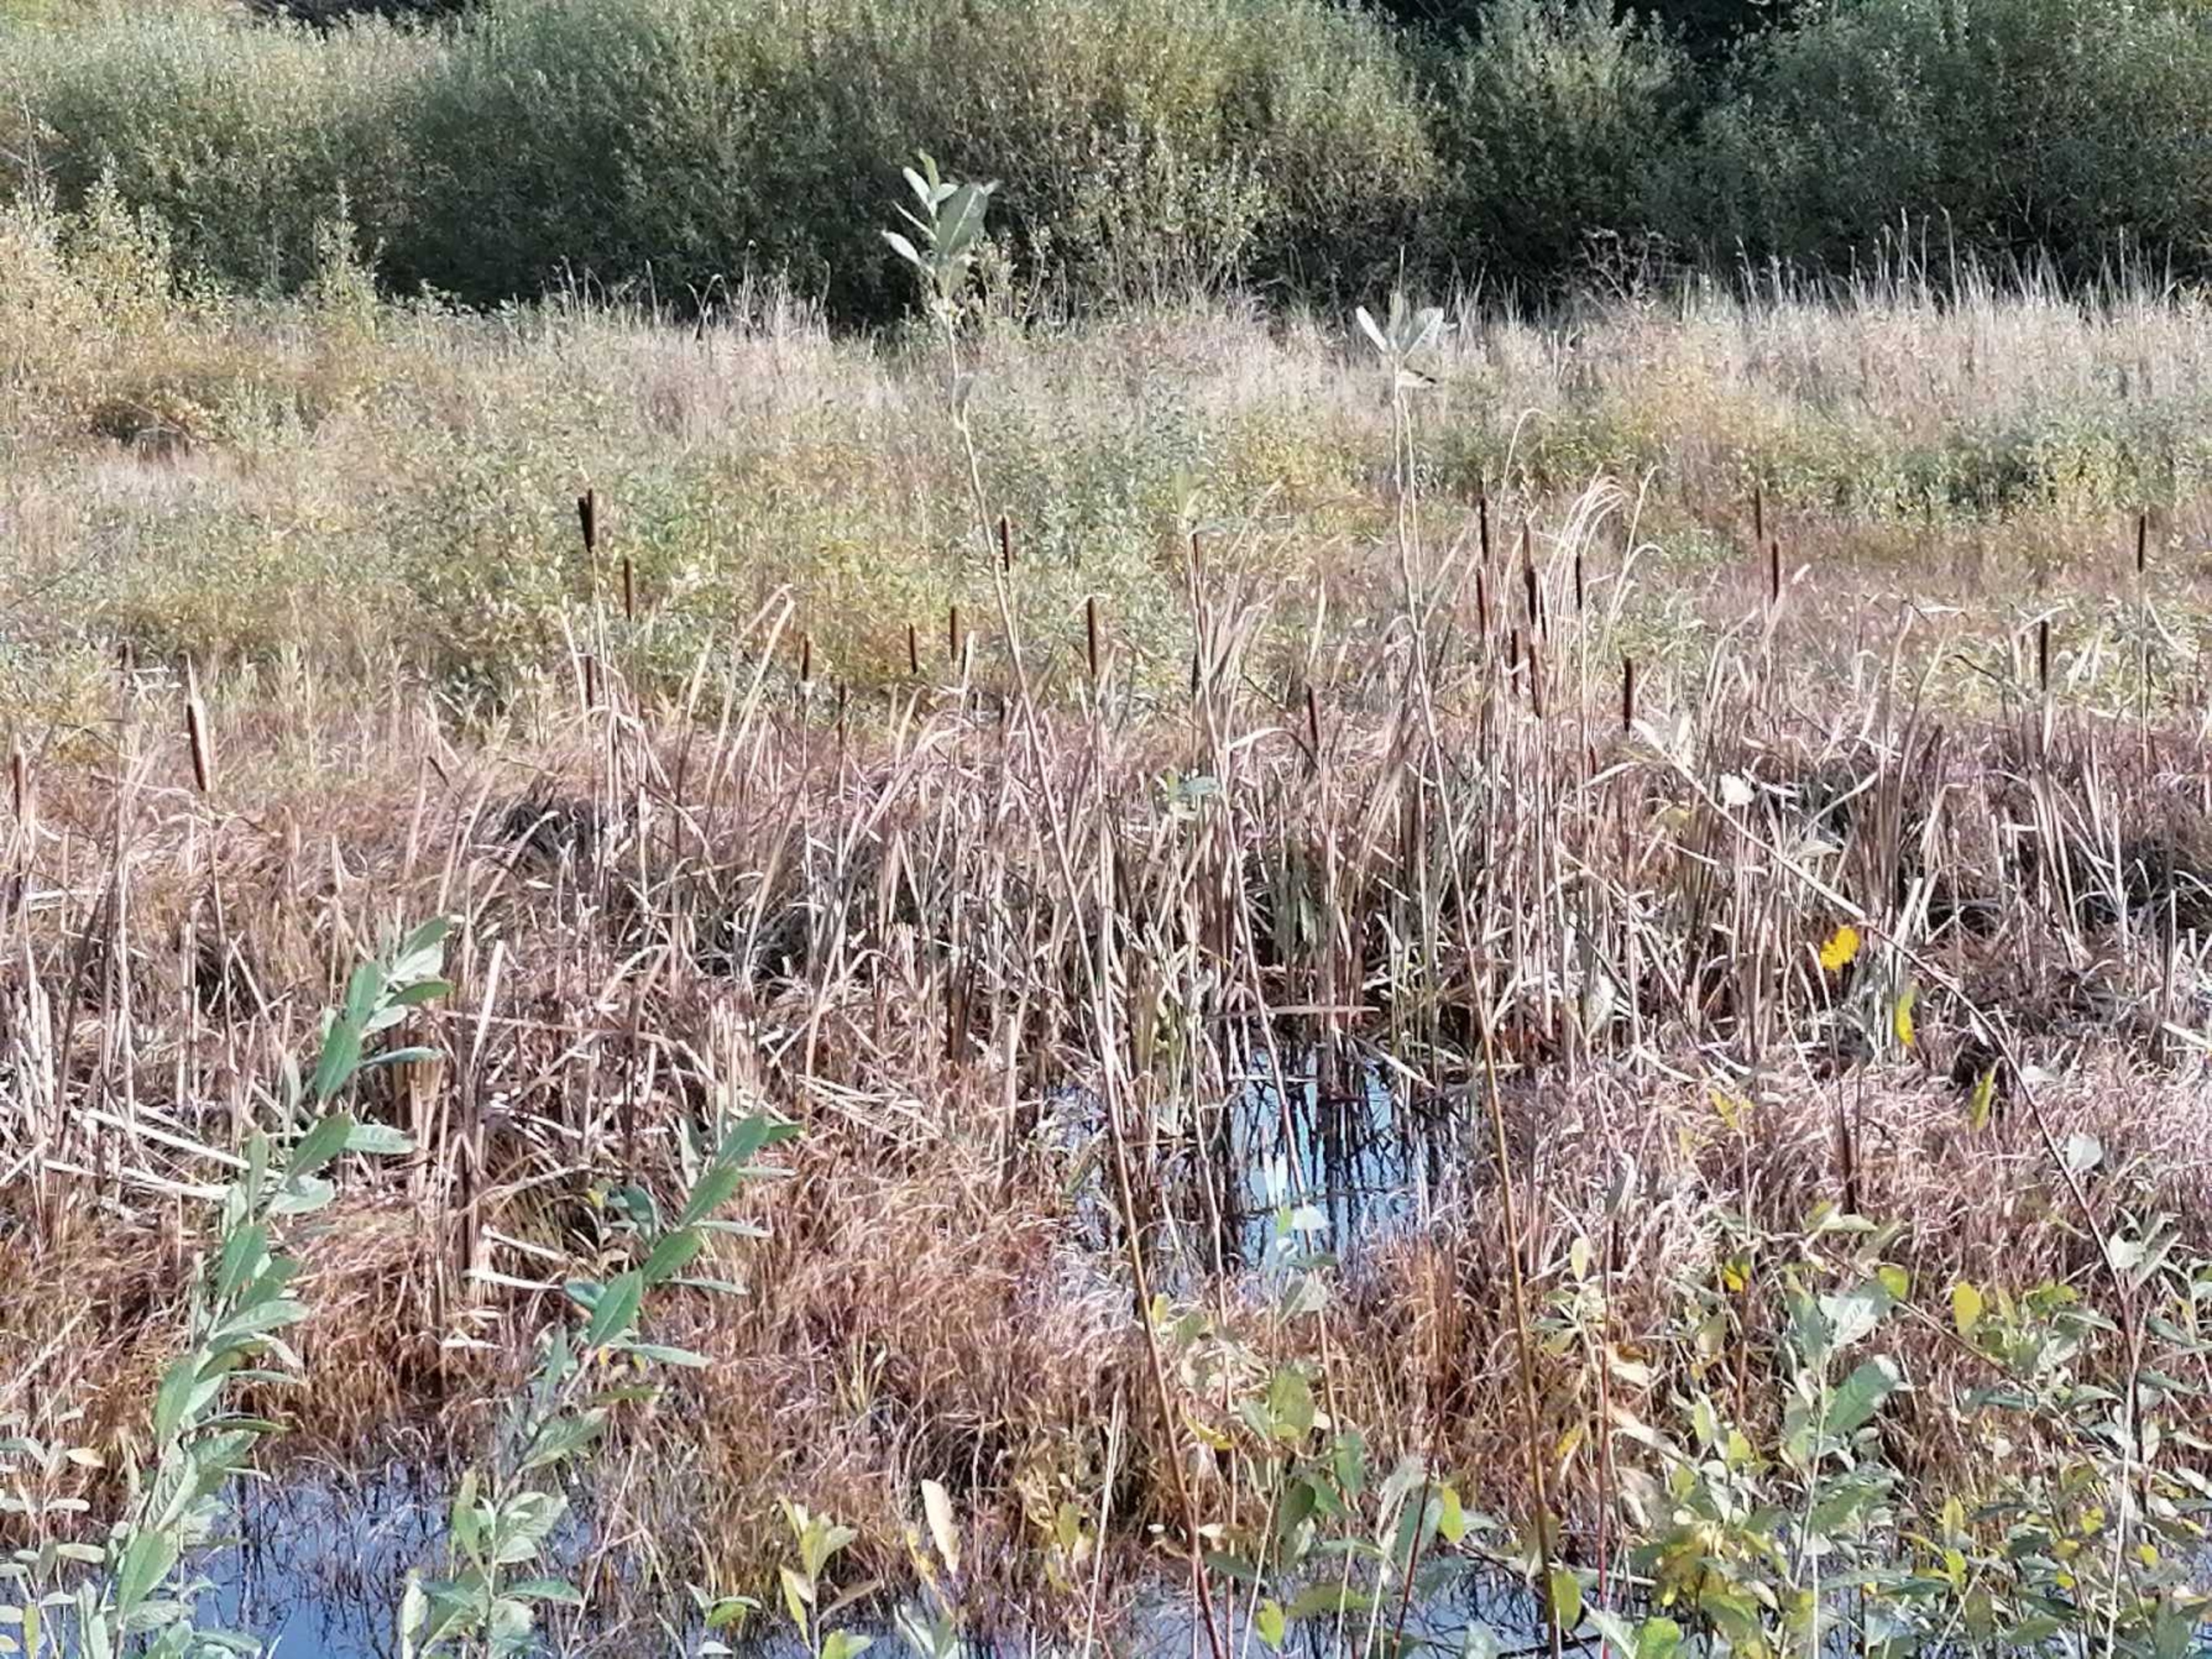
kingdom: Plantae
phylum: Tracheophyta
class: Liliopsida
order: Poales
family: Typhaceae
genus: Typha
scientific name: Typha angustifolia
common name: Smalbladet dunhammer
